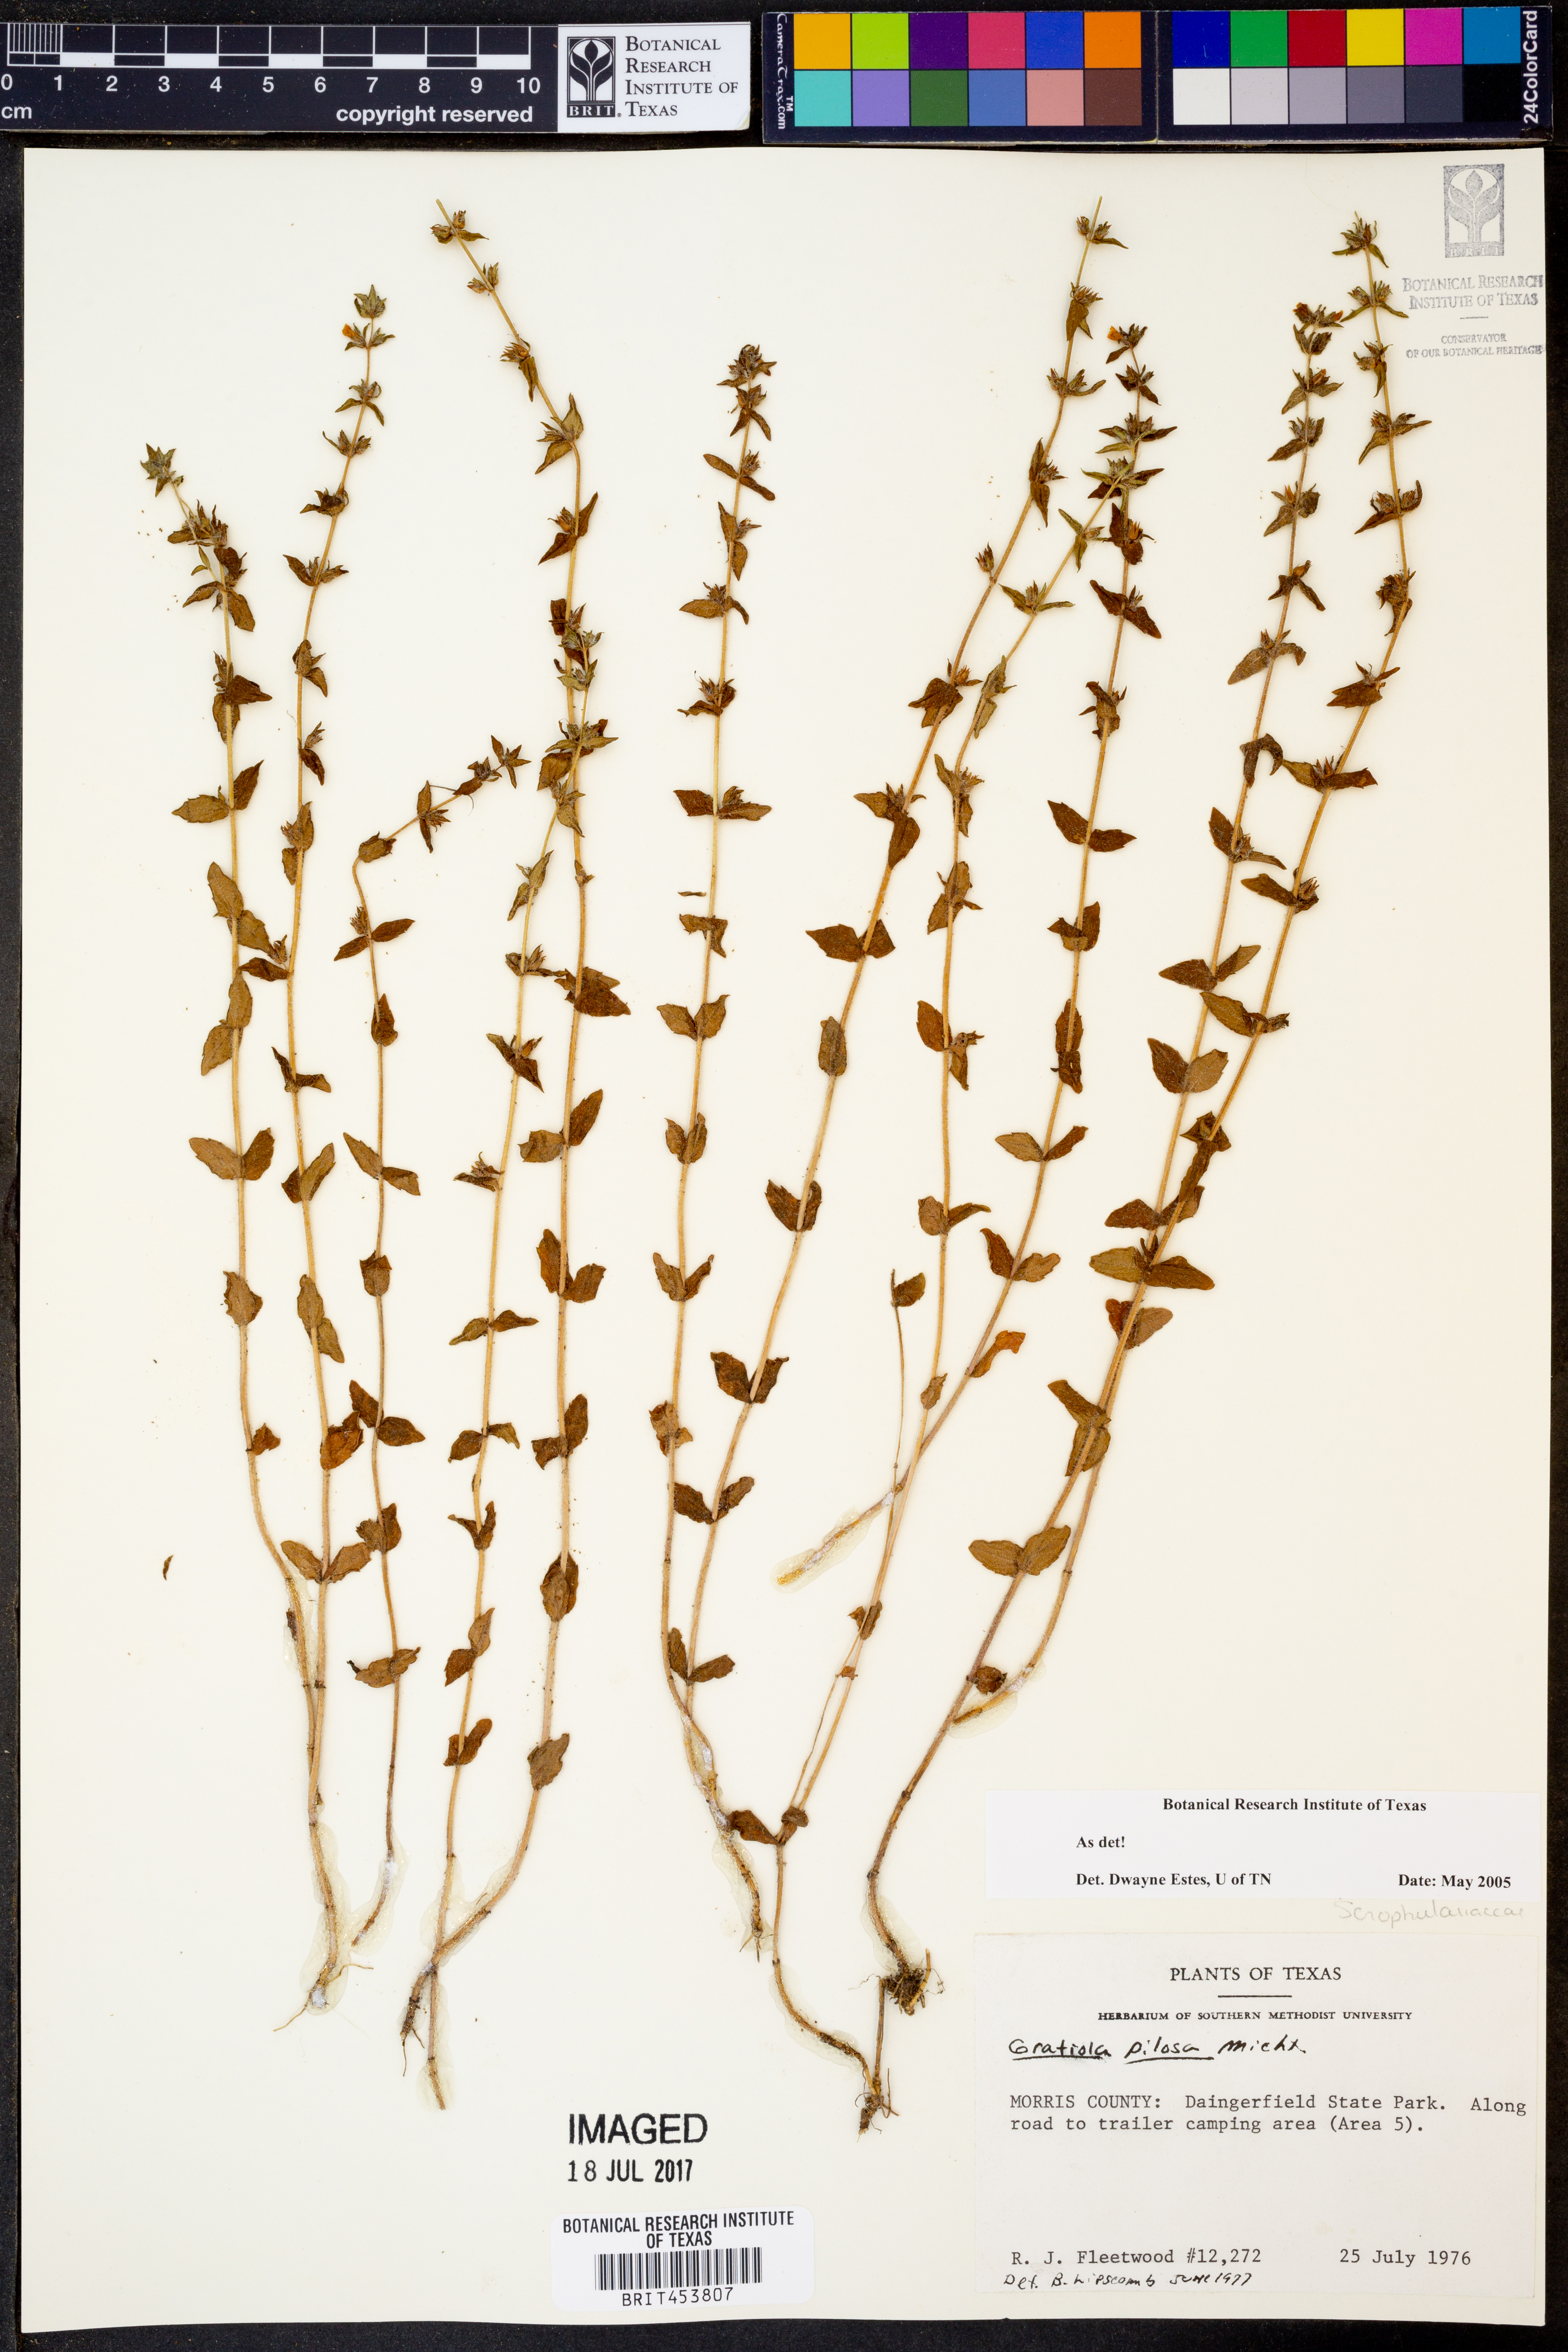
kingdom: Plantae
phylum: Tracheophyta
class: Magnoliopsida
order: Lamiales
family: Plantaginaceae
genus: Gratiola
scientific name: Gratiola pilosa
